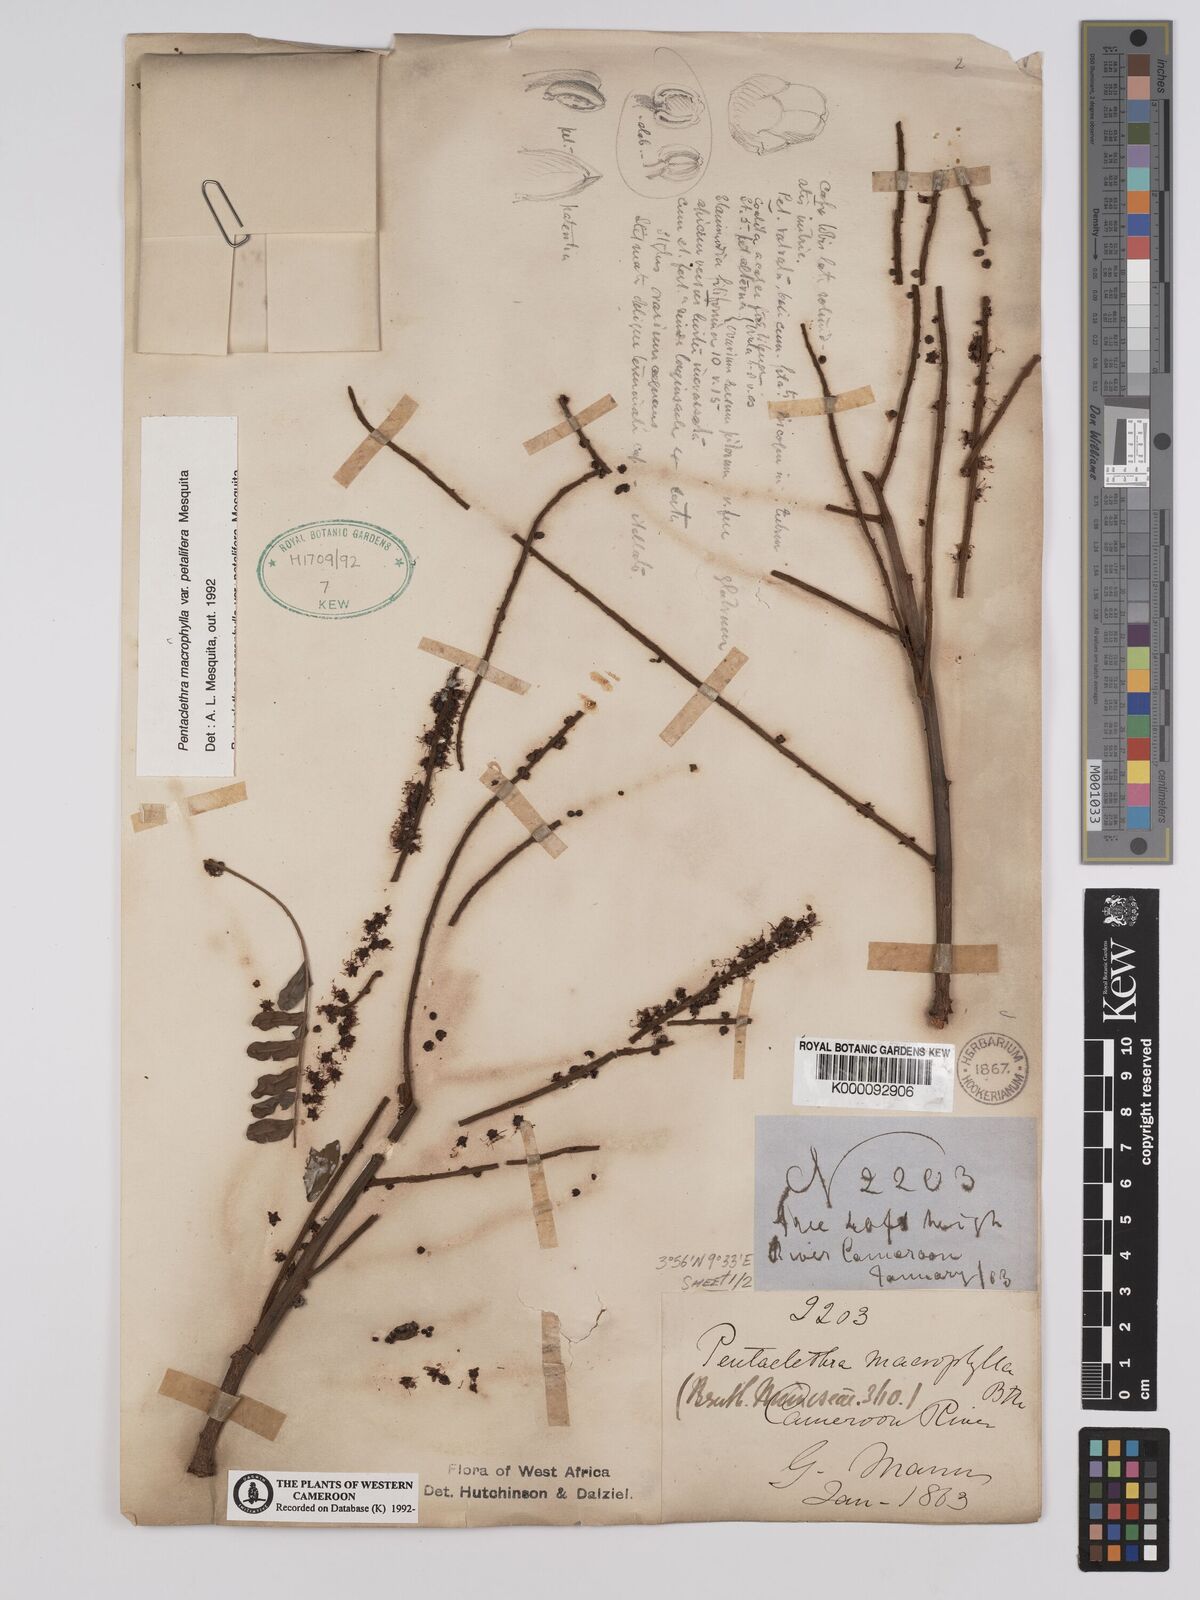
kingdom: Plantae
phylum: Tracheophyta
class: Magnoliopsida
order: Fabales
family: Fabaceae
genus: Pentaclethra
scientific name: Pentaclethra macrophylla
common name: African oil bean
